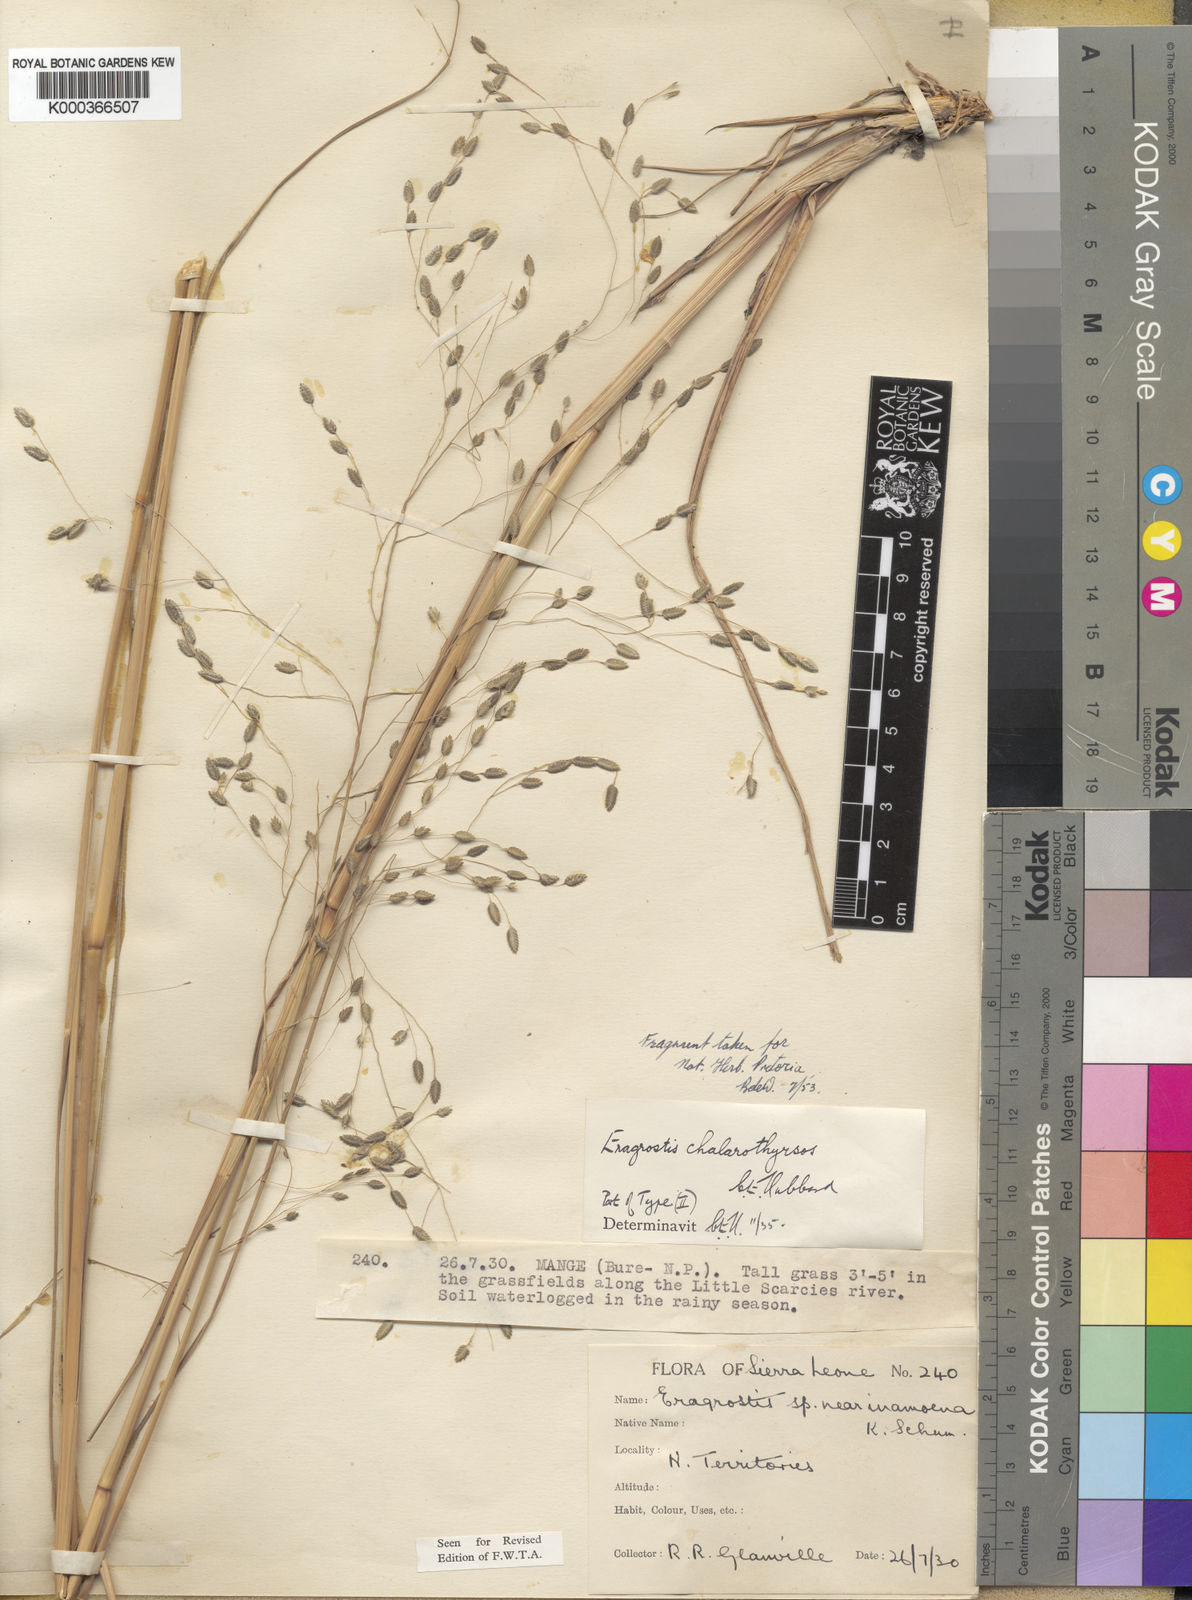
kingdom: Plantae
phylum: Tracheophyta
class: Liliopsida
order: Poales
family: Poaceae
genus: Eragrostis
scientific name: Eragrostis chalarothyrsos
